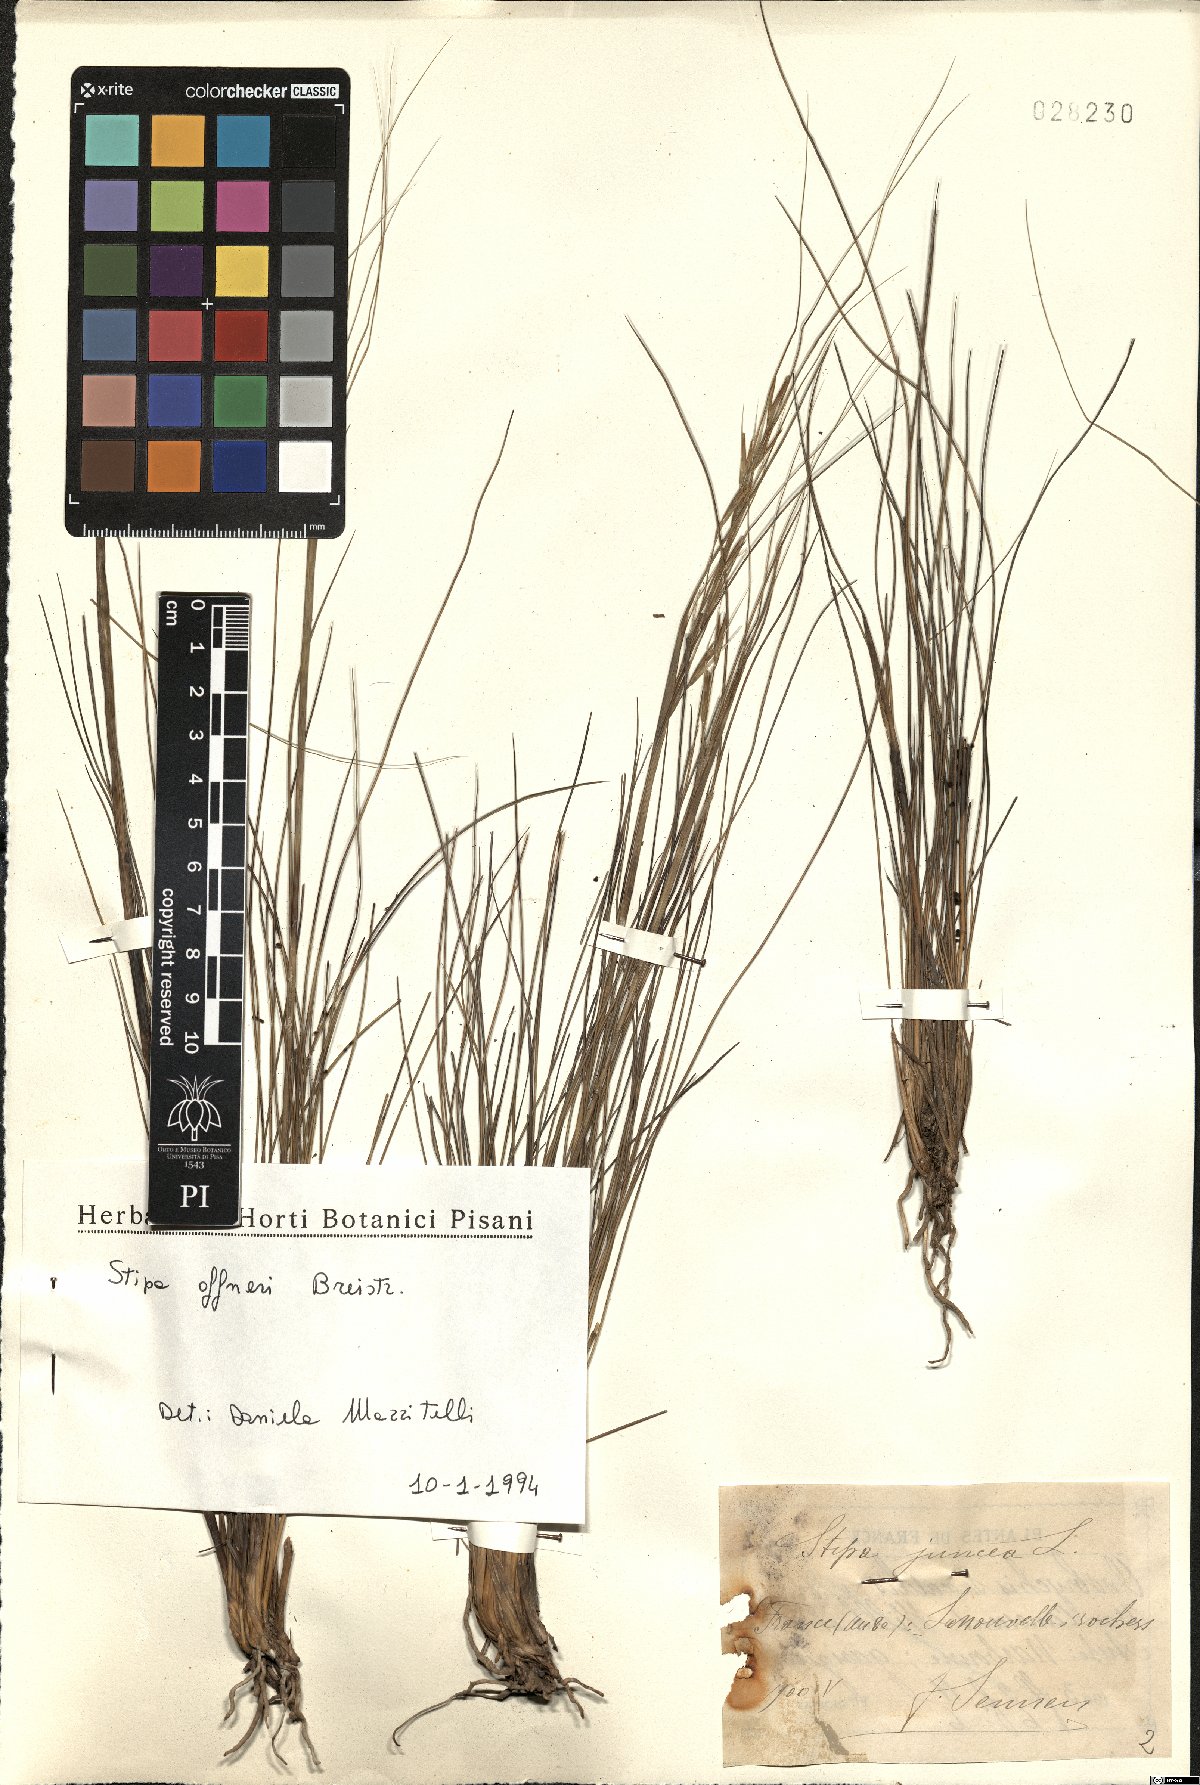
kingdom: Plantae
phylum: Tracheophyta
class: Liliopsida
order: Poales
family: Poaceae
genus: Stipa
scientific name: Stipa offneri
